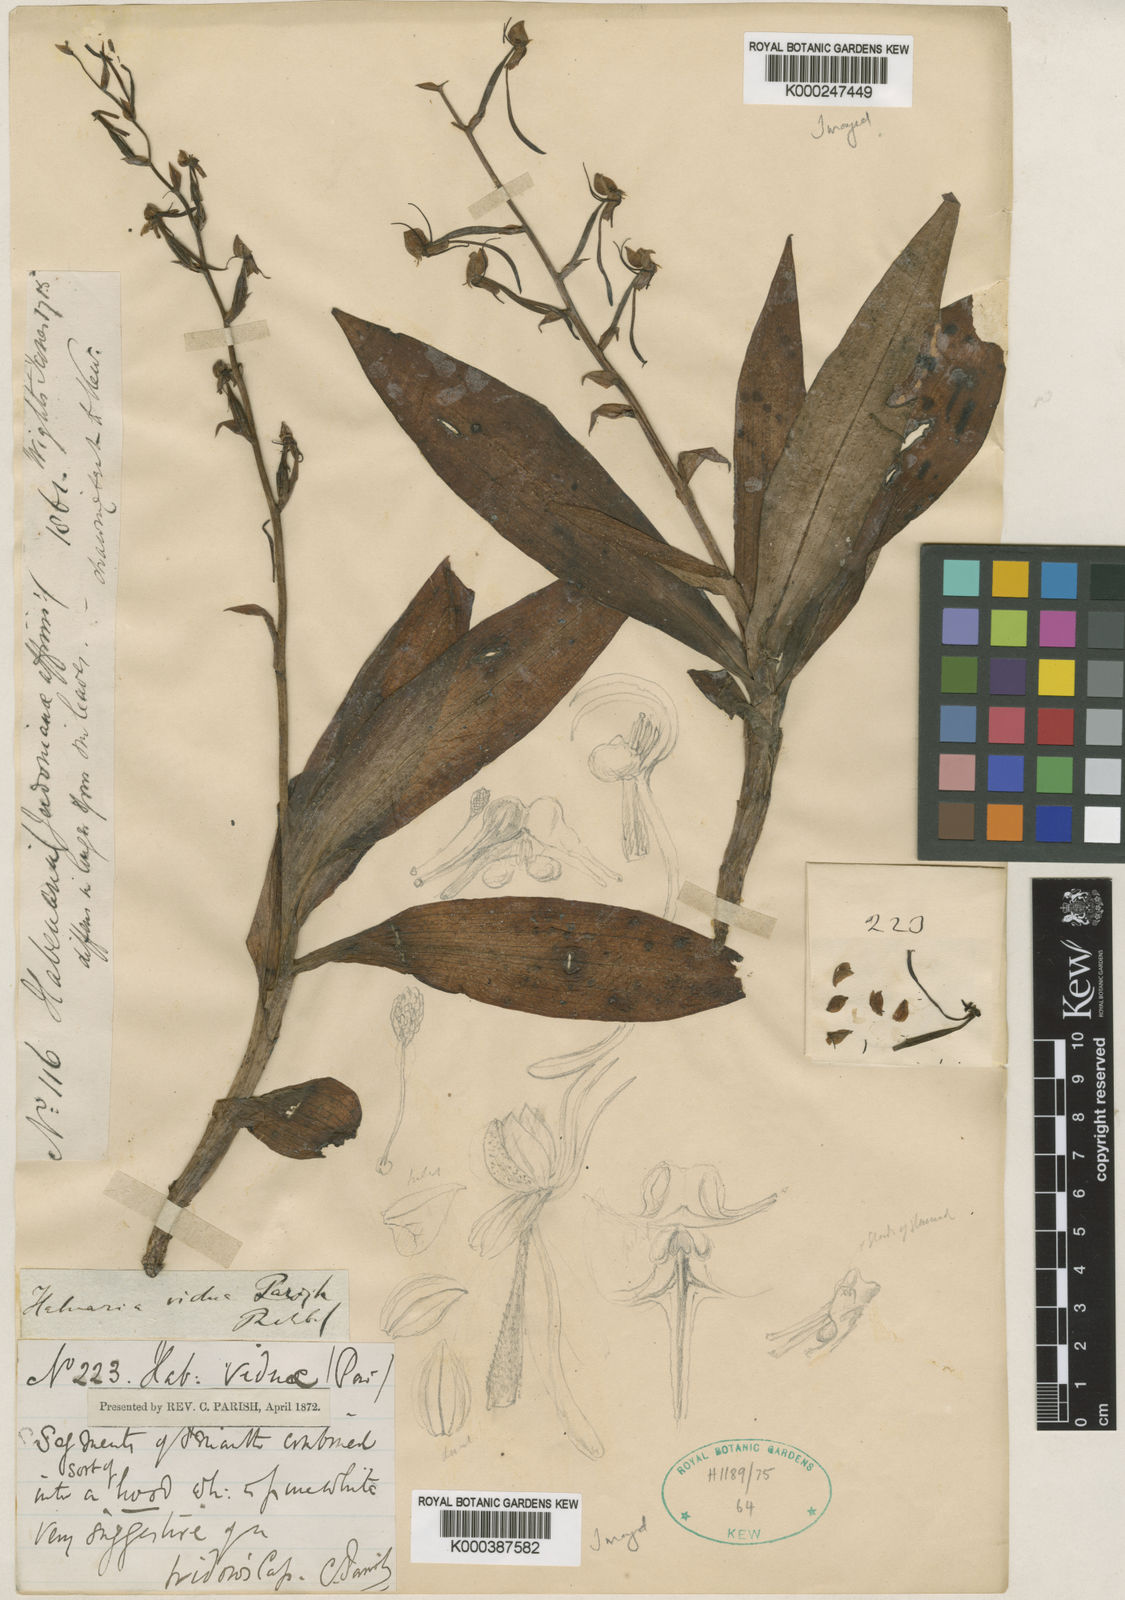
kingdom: Plantae
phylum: Tracheophyta
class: Liliopsida
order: Asparagales
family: Orchidaceae
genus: Habenaria
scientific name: Habenaria vidua
